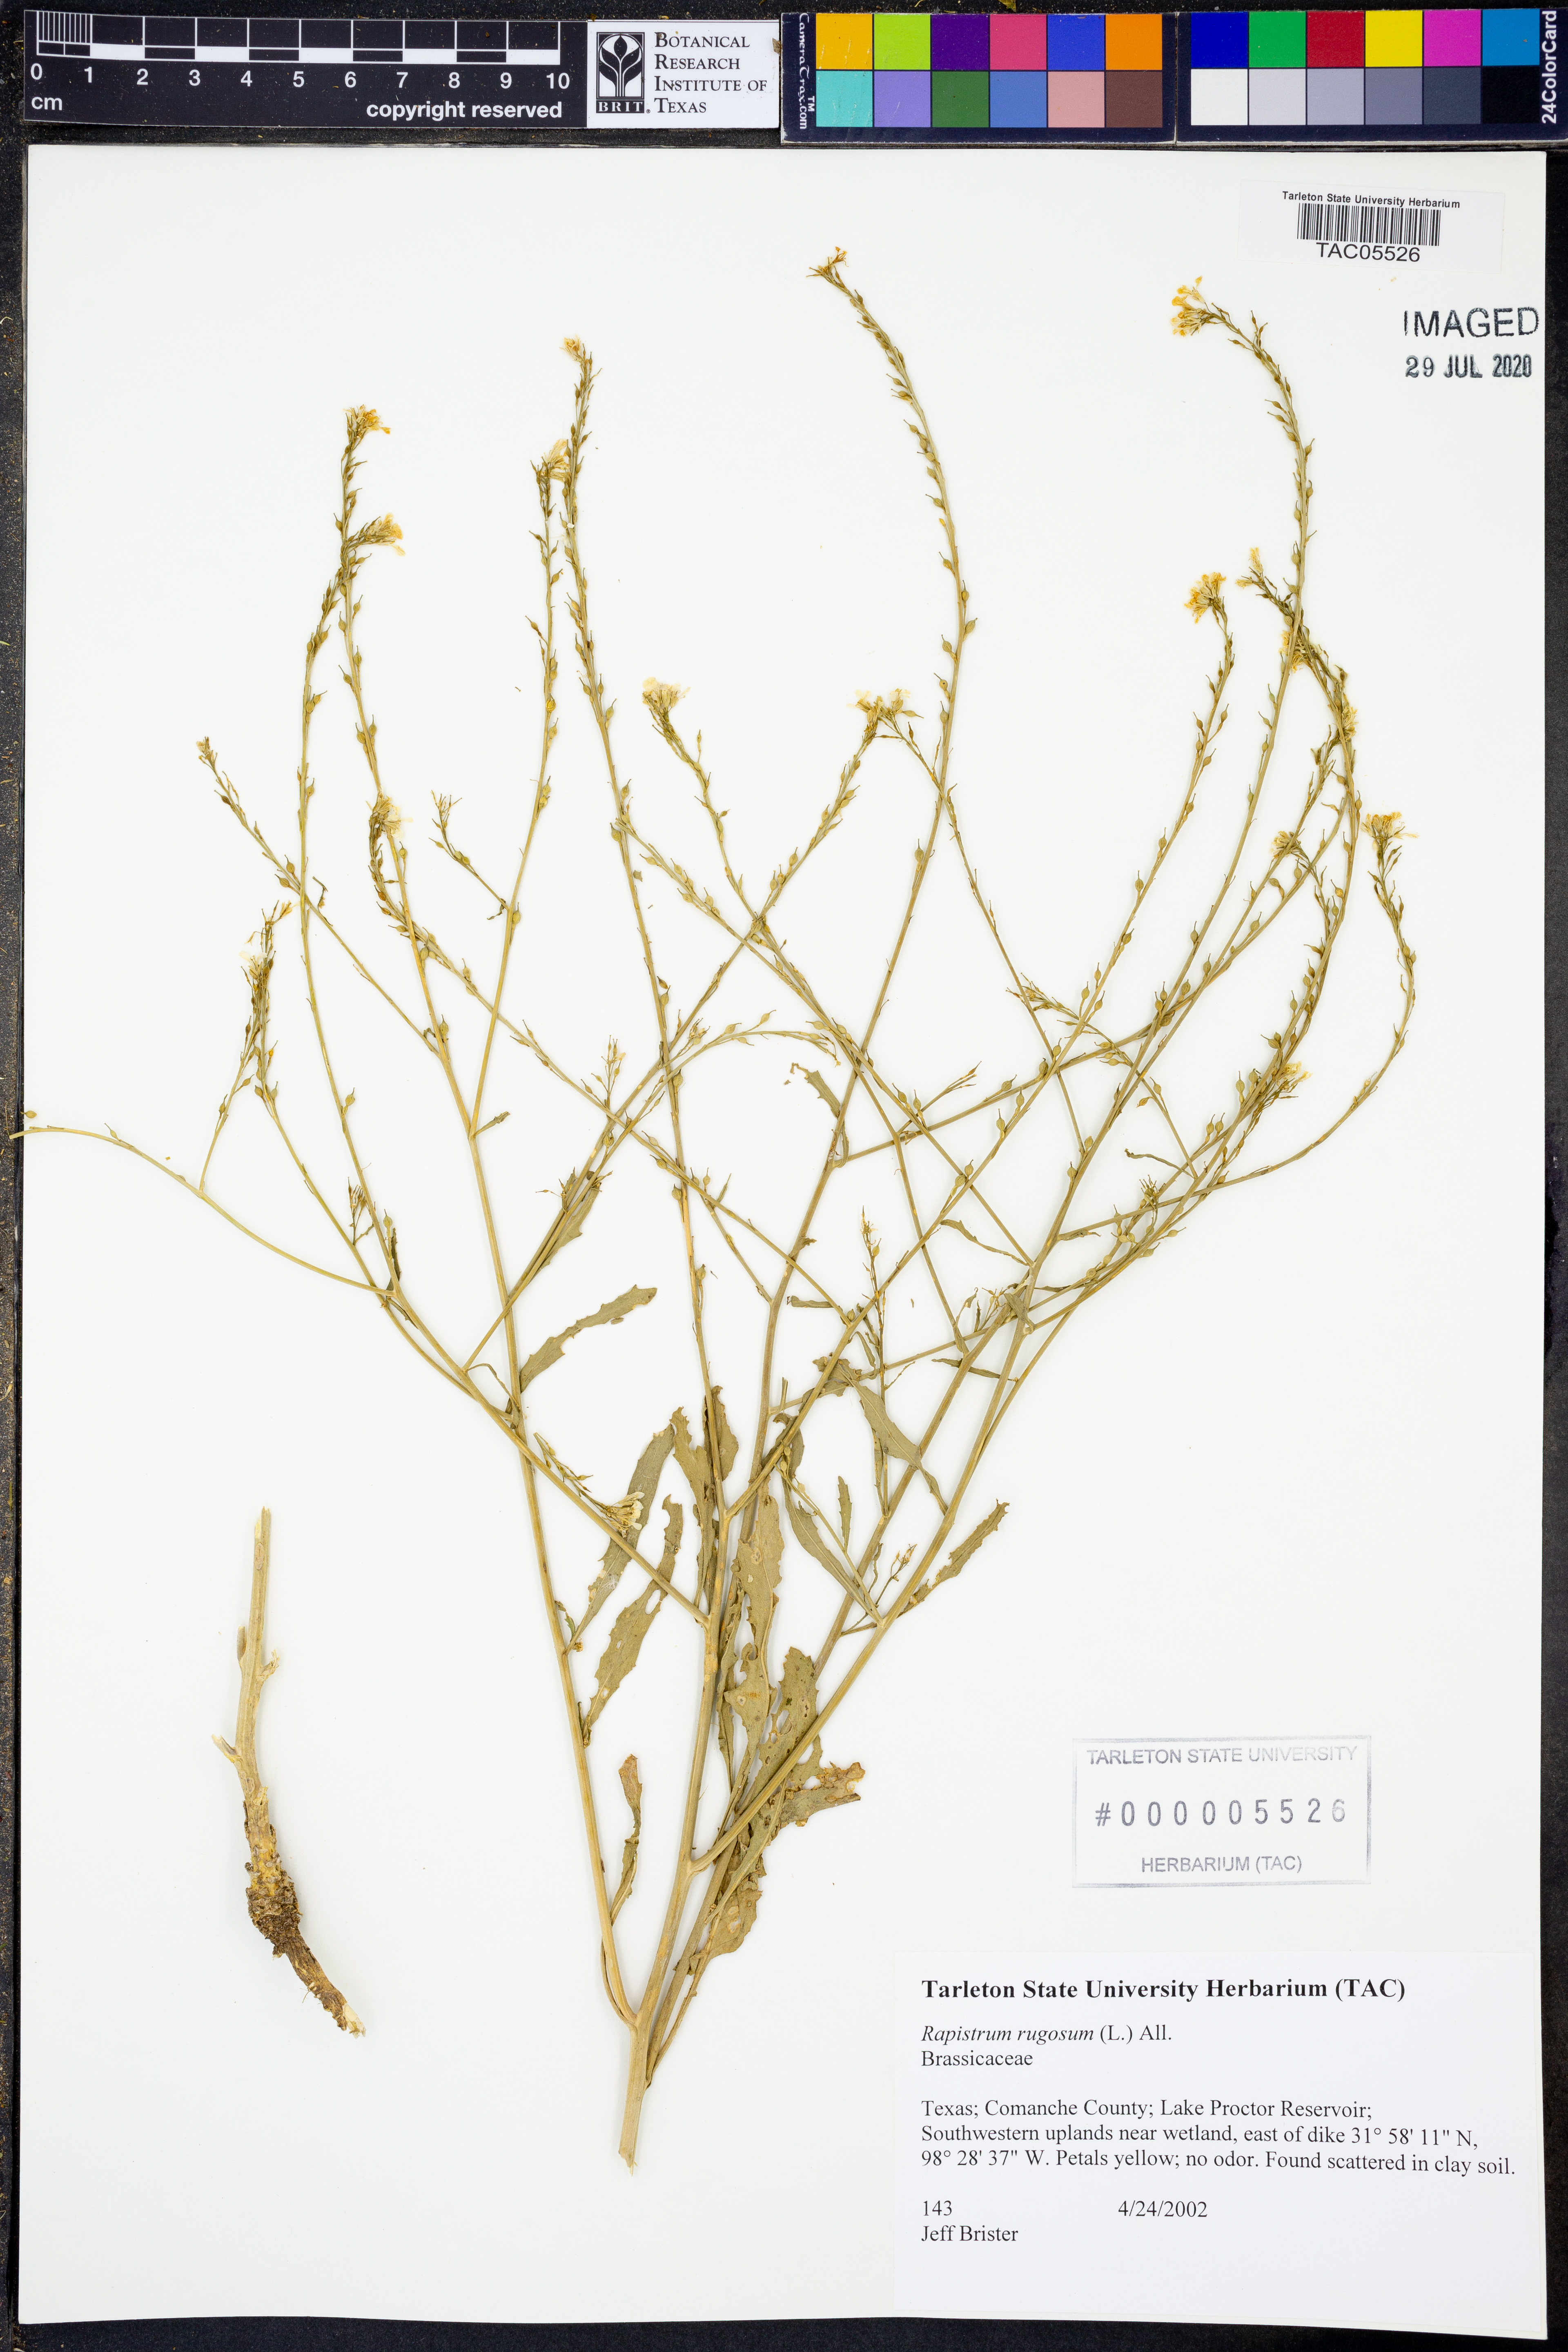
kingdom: Plantae
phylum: Tracheophyta
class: Magnoliopsida
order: Brassicales
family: Brassicaceae
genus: Rapistrum
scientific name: Rapistrum rugosum
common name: Annual bastardcabbage
